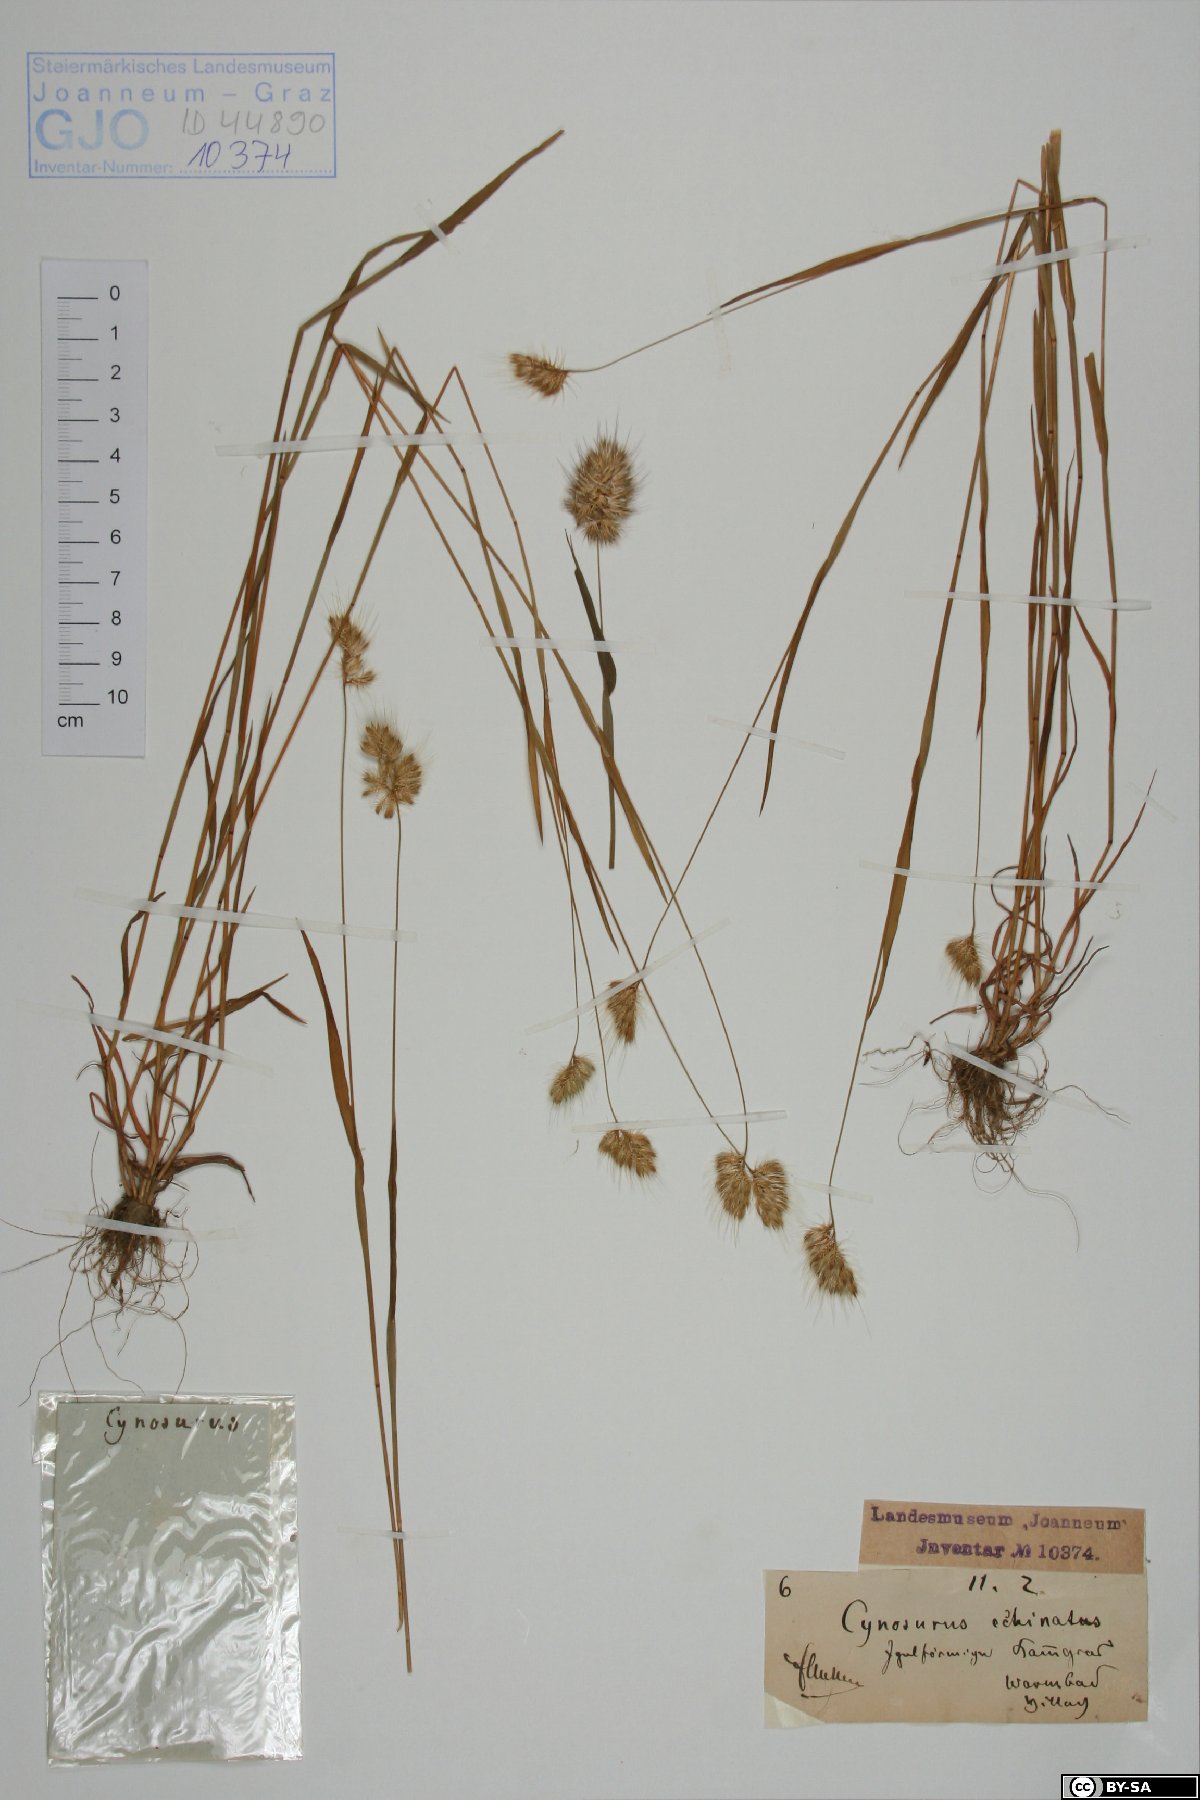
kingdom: Plantae
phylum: Tracheophyta
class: Liliopsida
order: Poales
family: Poaceae
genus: Cynosurus
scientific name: Cynosurus echinatus
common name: Rough dog's-tail
